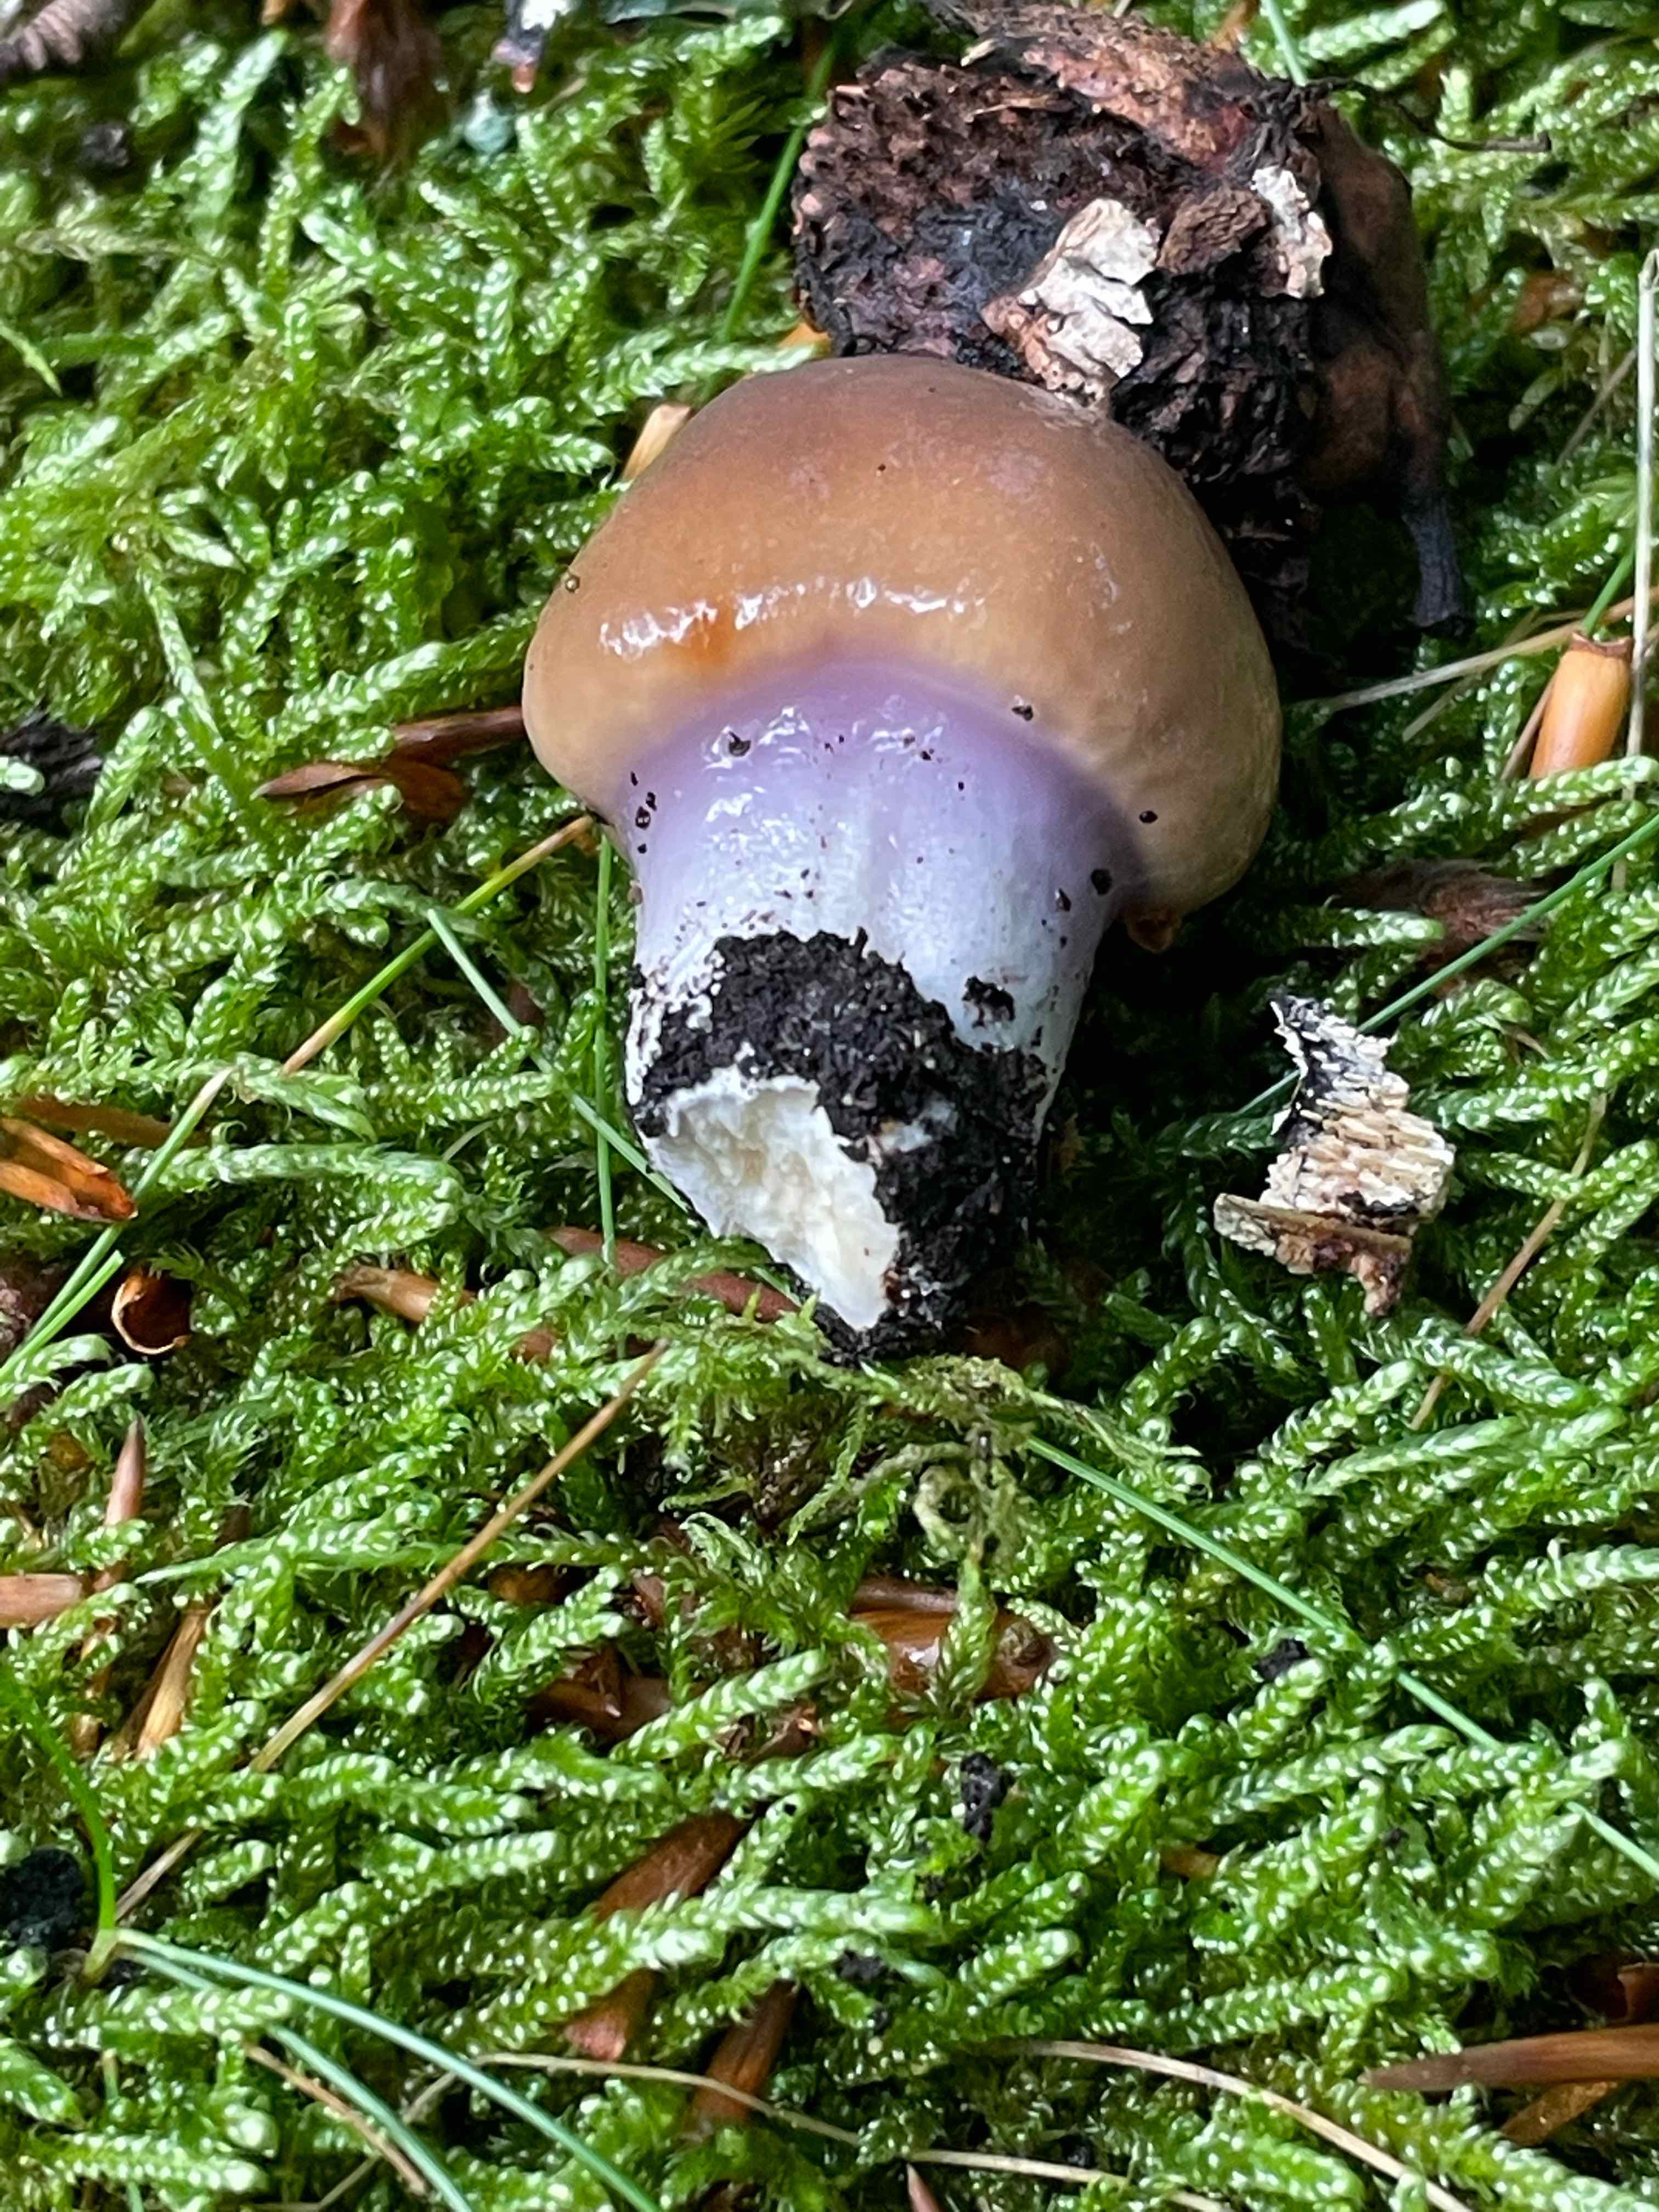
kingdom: Fungi
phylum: Basidiomycota
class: Agaricomycetes
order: Agaricales
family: Cortinariaceae
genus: Cortinarius
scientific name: Cortinarius
